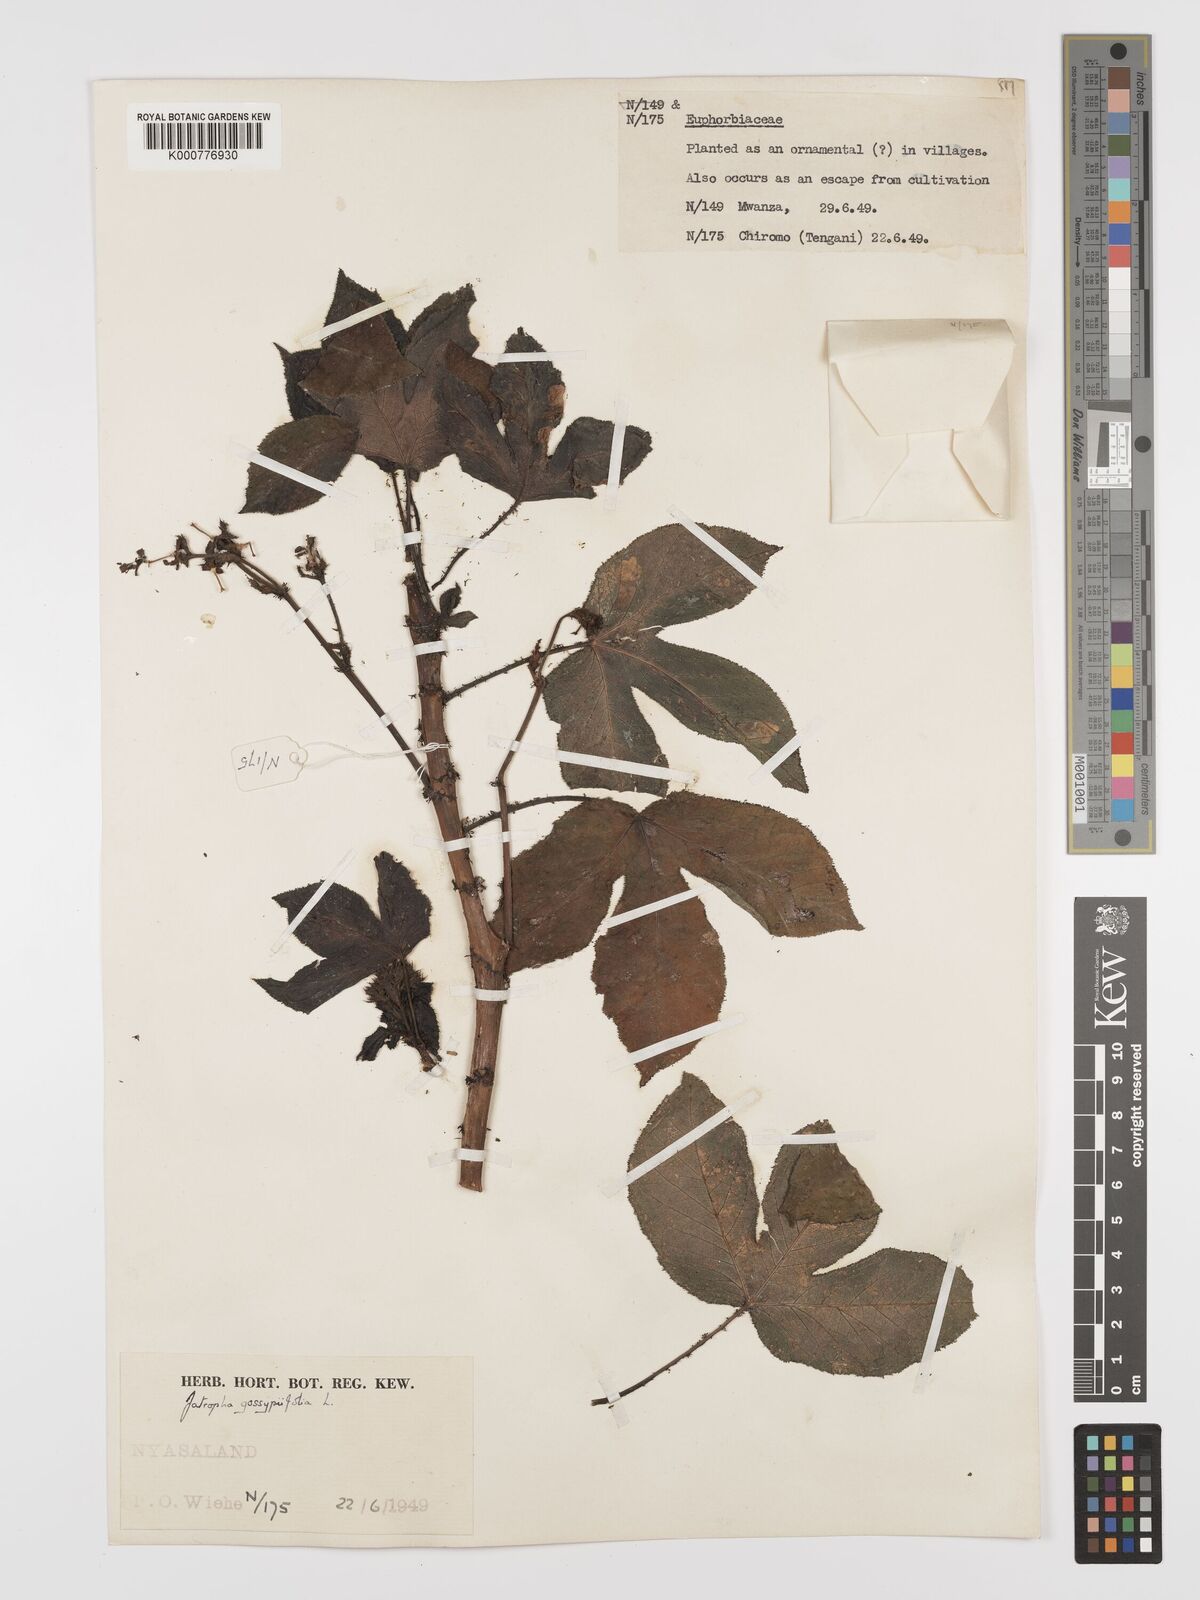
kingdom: Plantae
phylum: Tracheophyta
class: Magnoliopsida
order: Malpighiales
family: Euphorbiaceae
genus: Jatropha
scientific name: Jatropha gossypiifolia
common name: Bellyache bush
